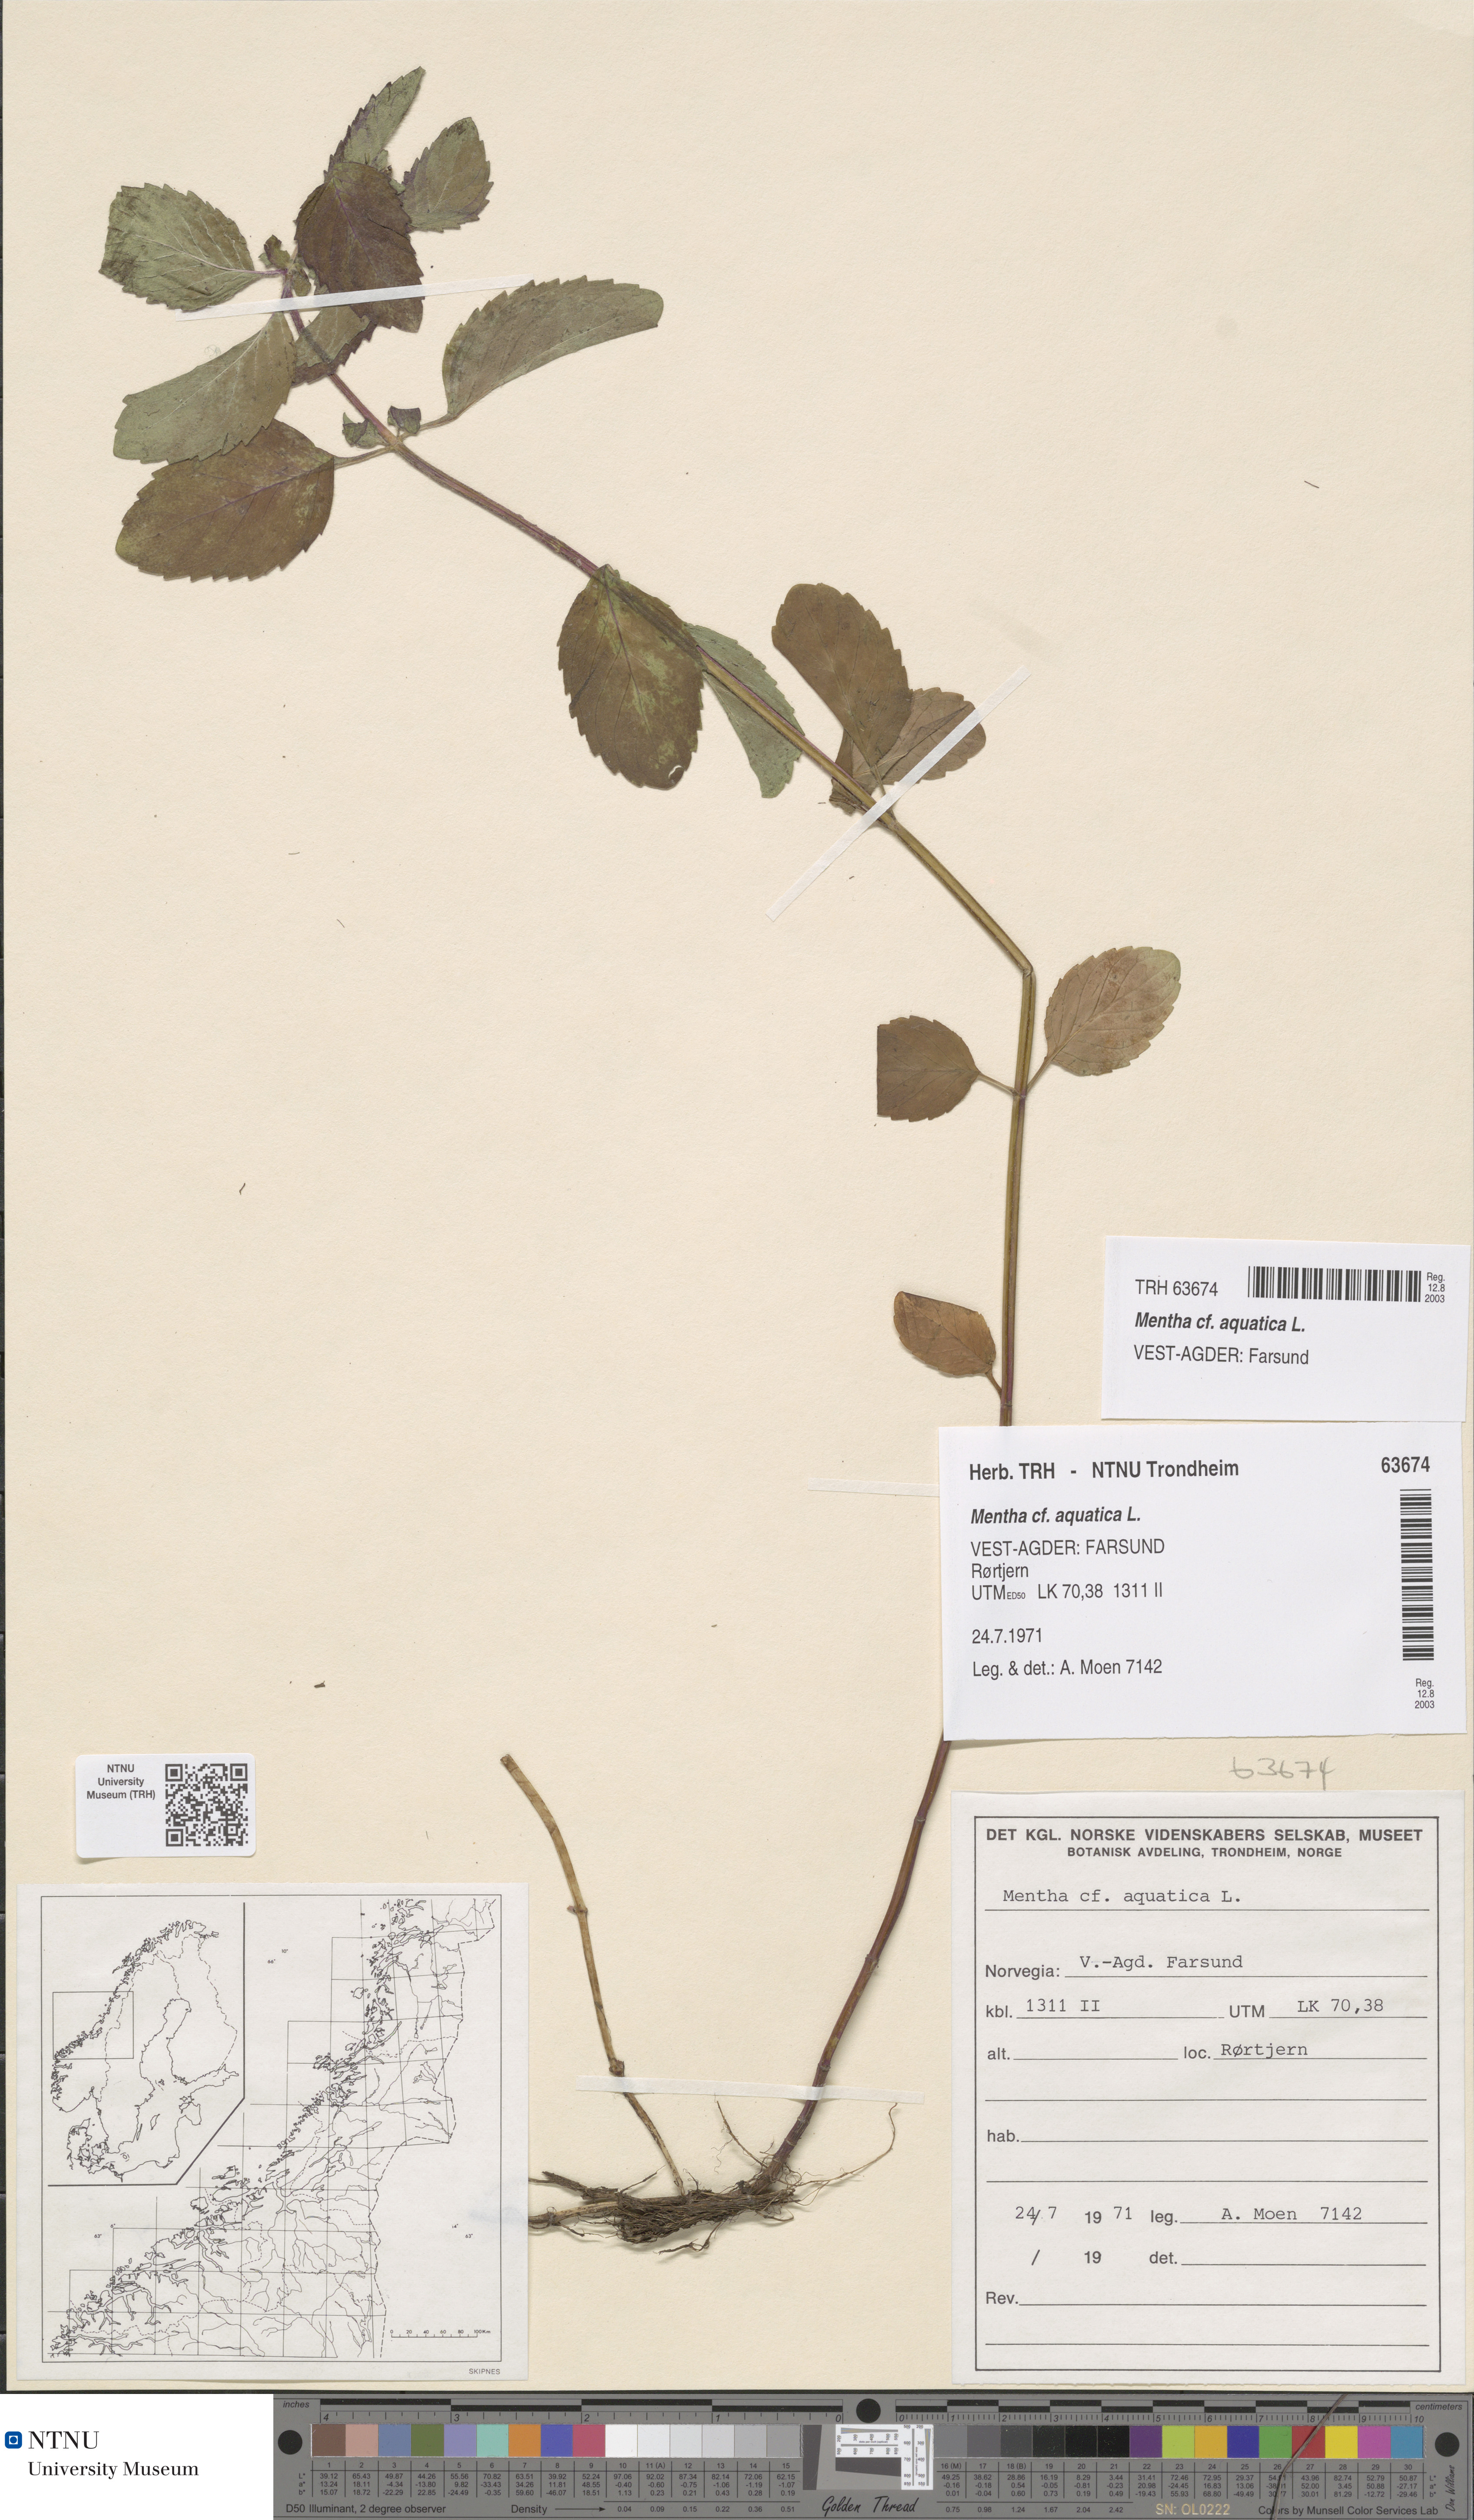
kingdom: Plantae
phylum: Tracheophyta
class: Magnoliopsida
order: Lamiales
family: Lamiaceae
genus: Mentha
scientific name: Mentha aquatica
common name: Water mint
